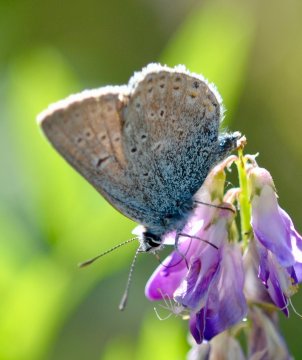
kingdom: Animalia
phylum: Arthropoda
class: Insecta
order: Lepidoptera
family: Lycaenidae
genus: Plebejus
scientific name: Plebejus saepiolus
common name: Greenish Blue
